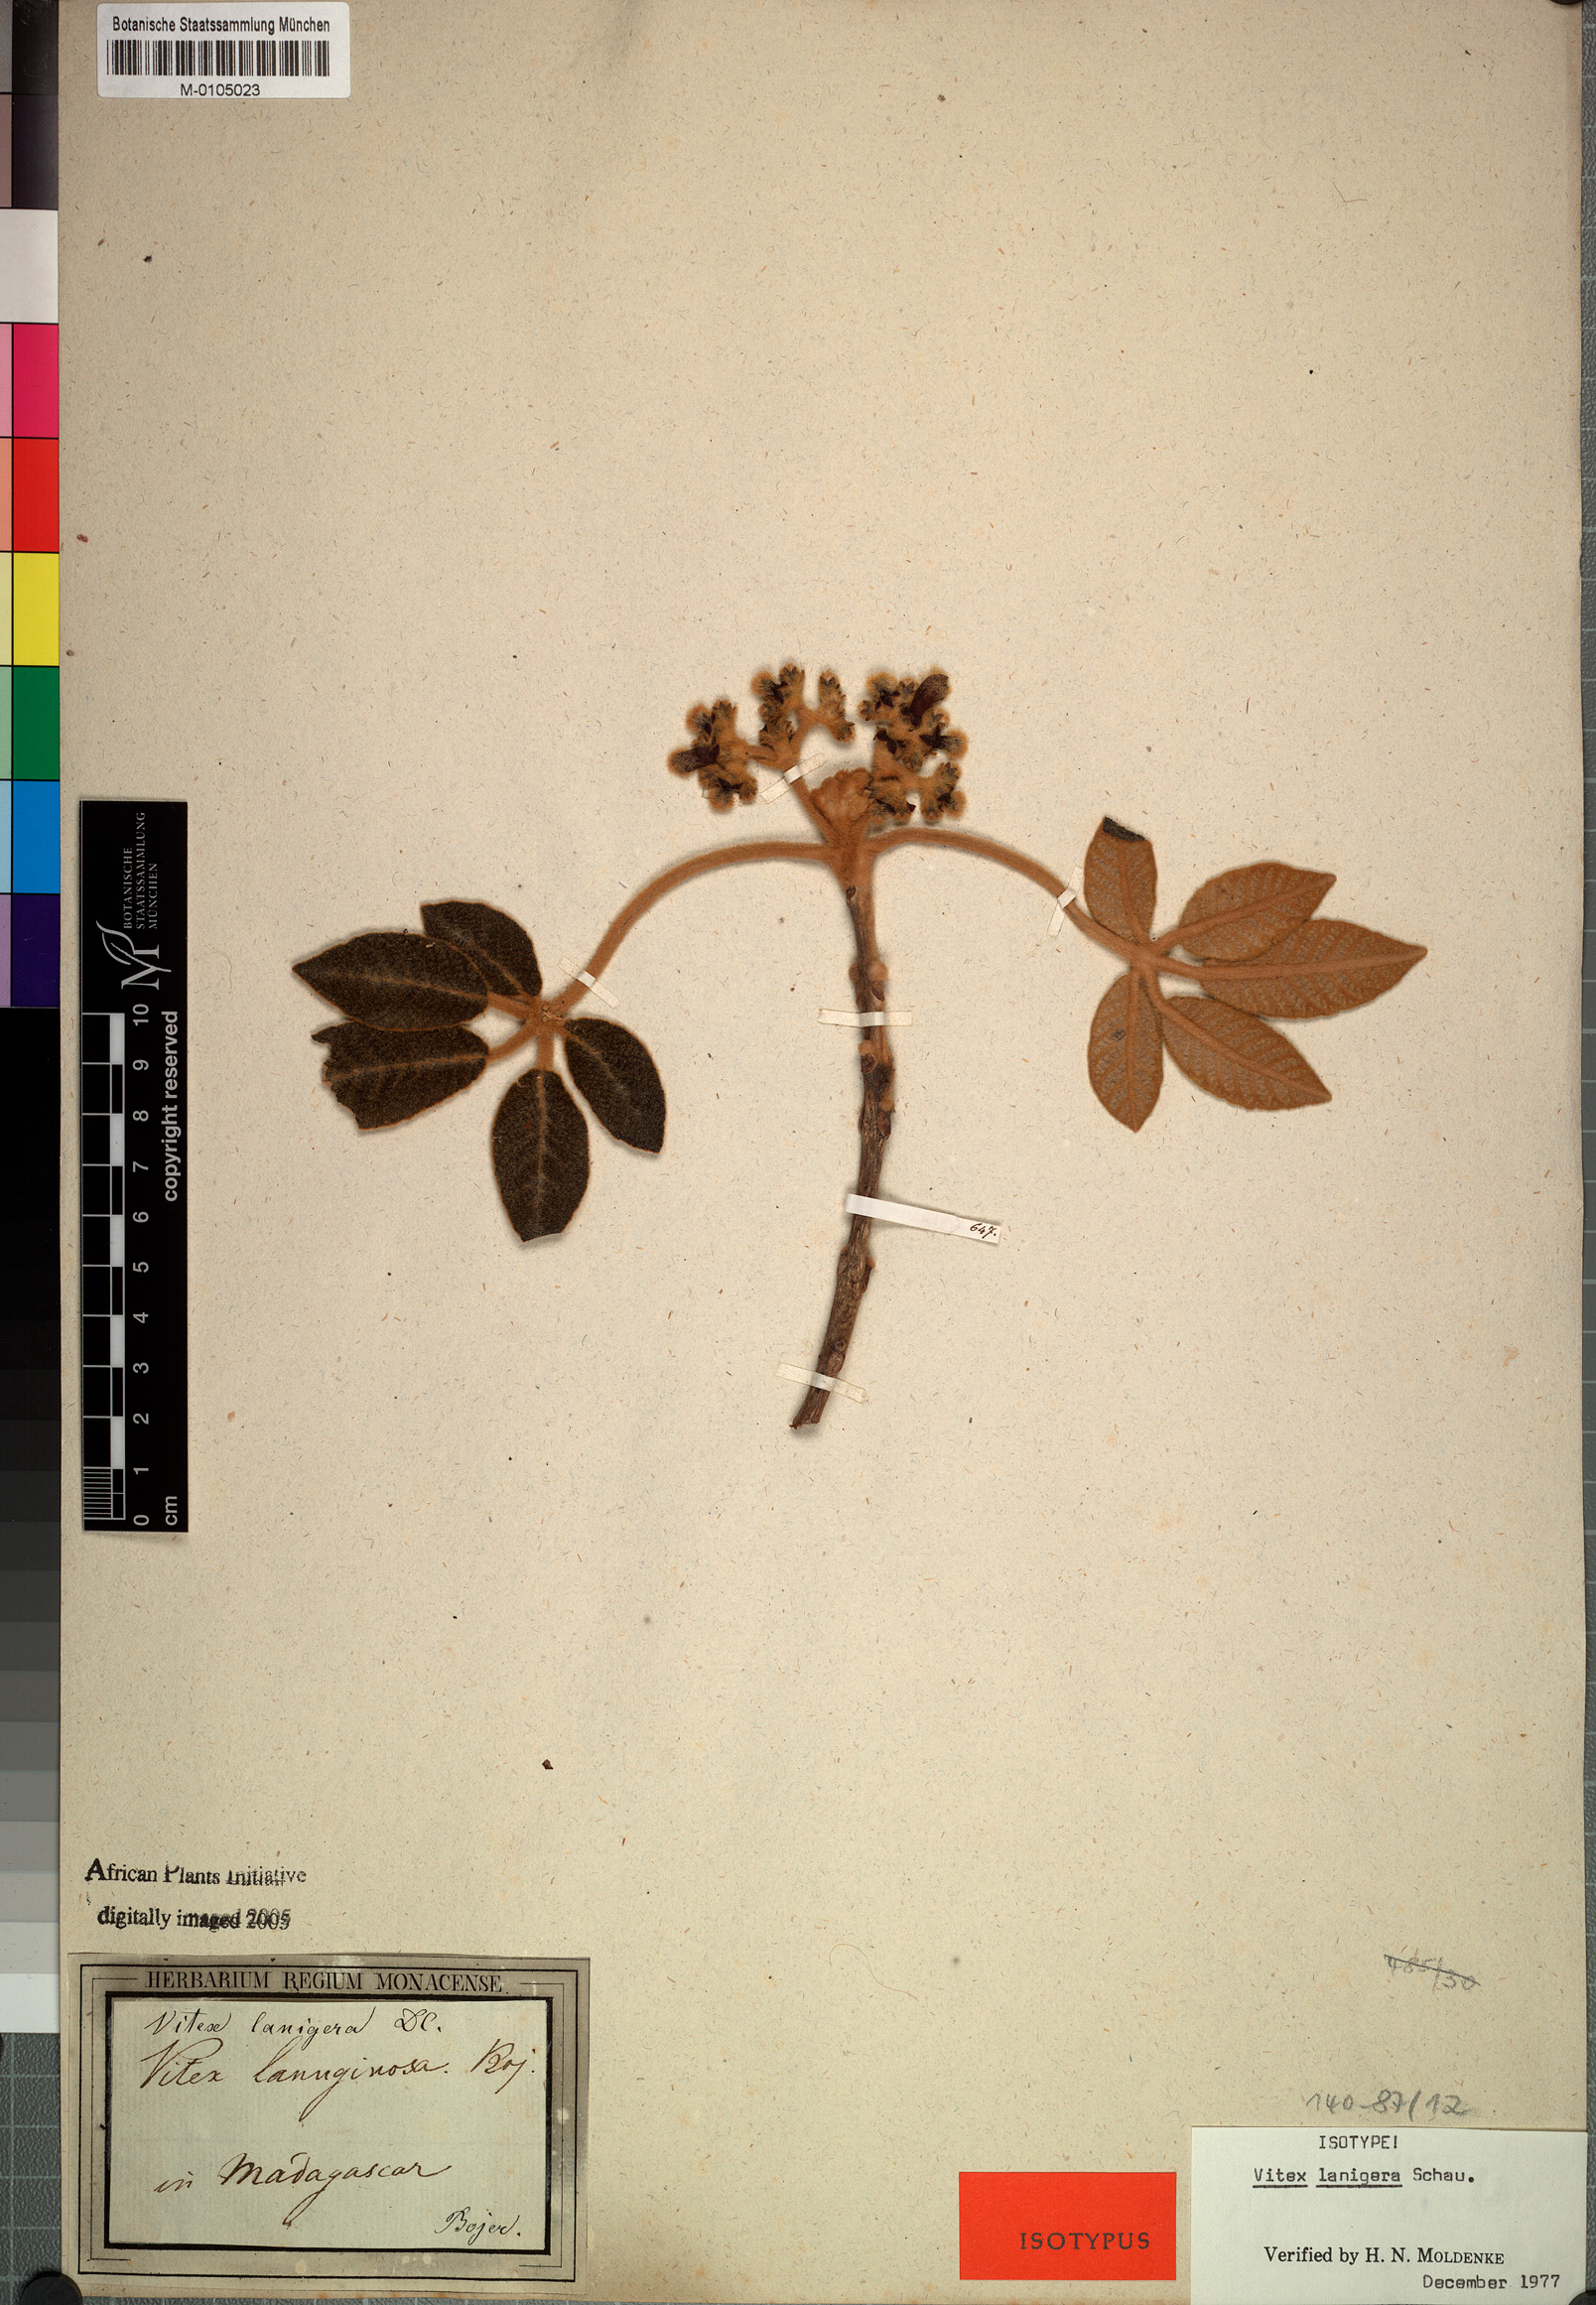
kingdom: Plantae
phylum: Tracheophyta
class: Magnoliopsida
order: Lamiales
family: Lamiaceae
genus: Vitex
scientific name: Vitex lanigera
